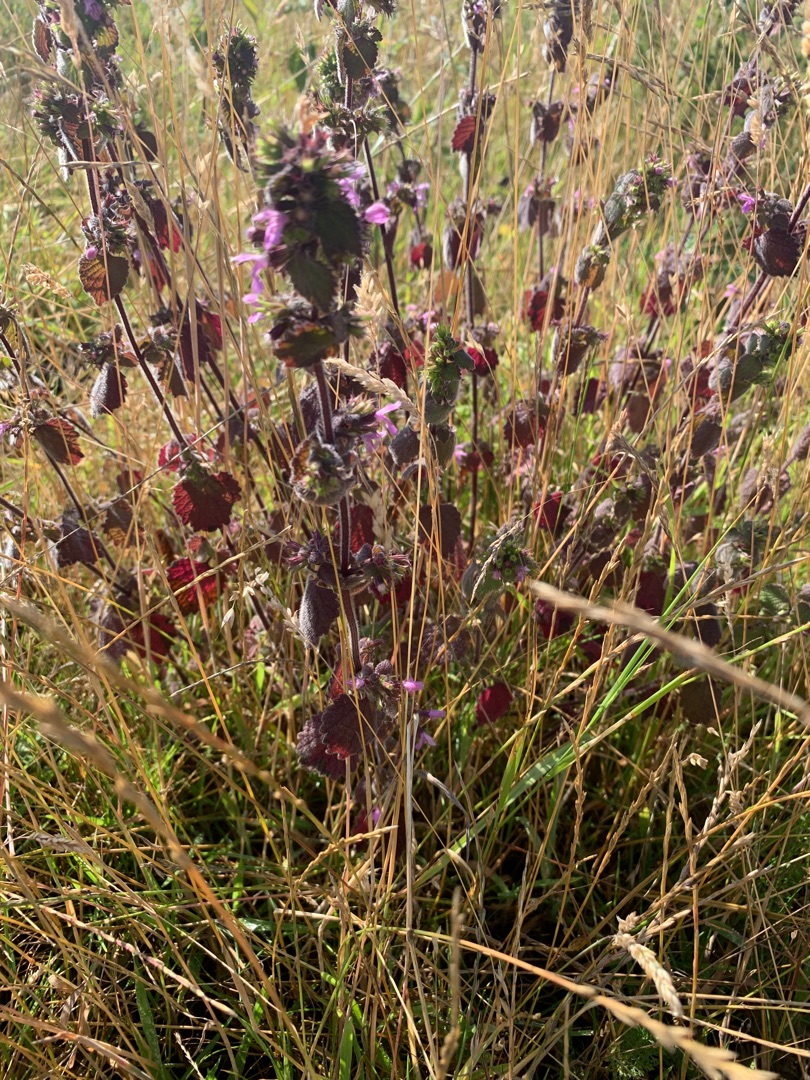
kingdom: Plantae
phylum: Tracheophyta
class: Magnoliopsida
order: Lamiales
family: Lamiaceae
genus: Ballota
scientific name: Ballota nigra
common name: Tandbæger
